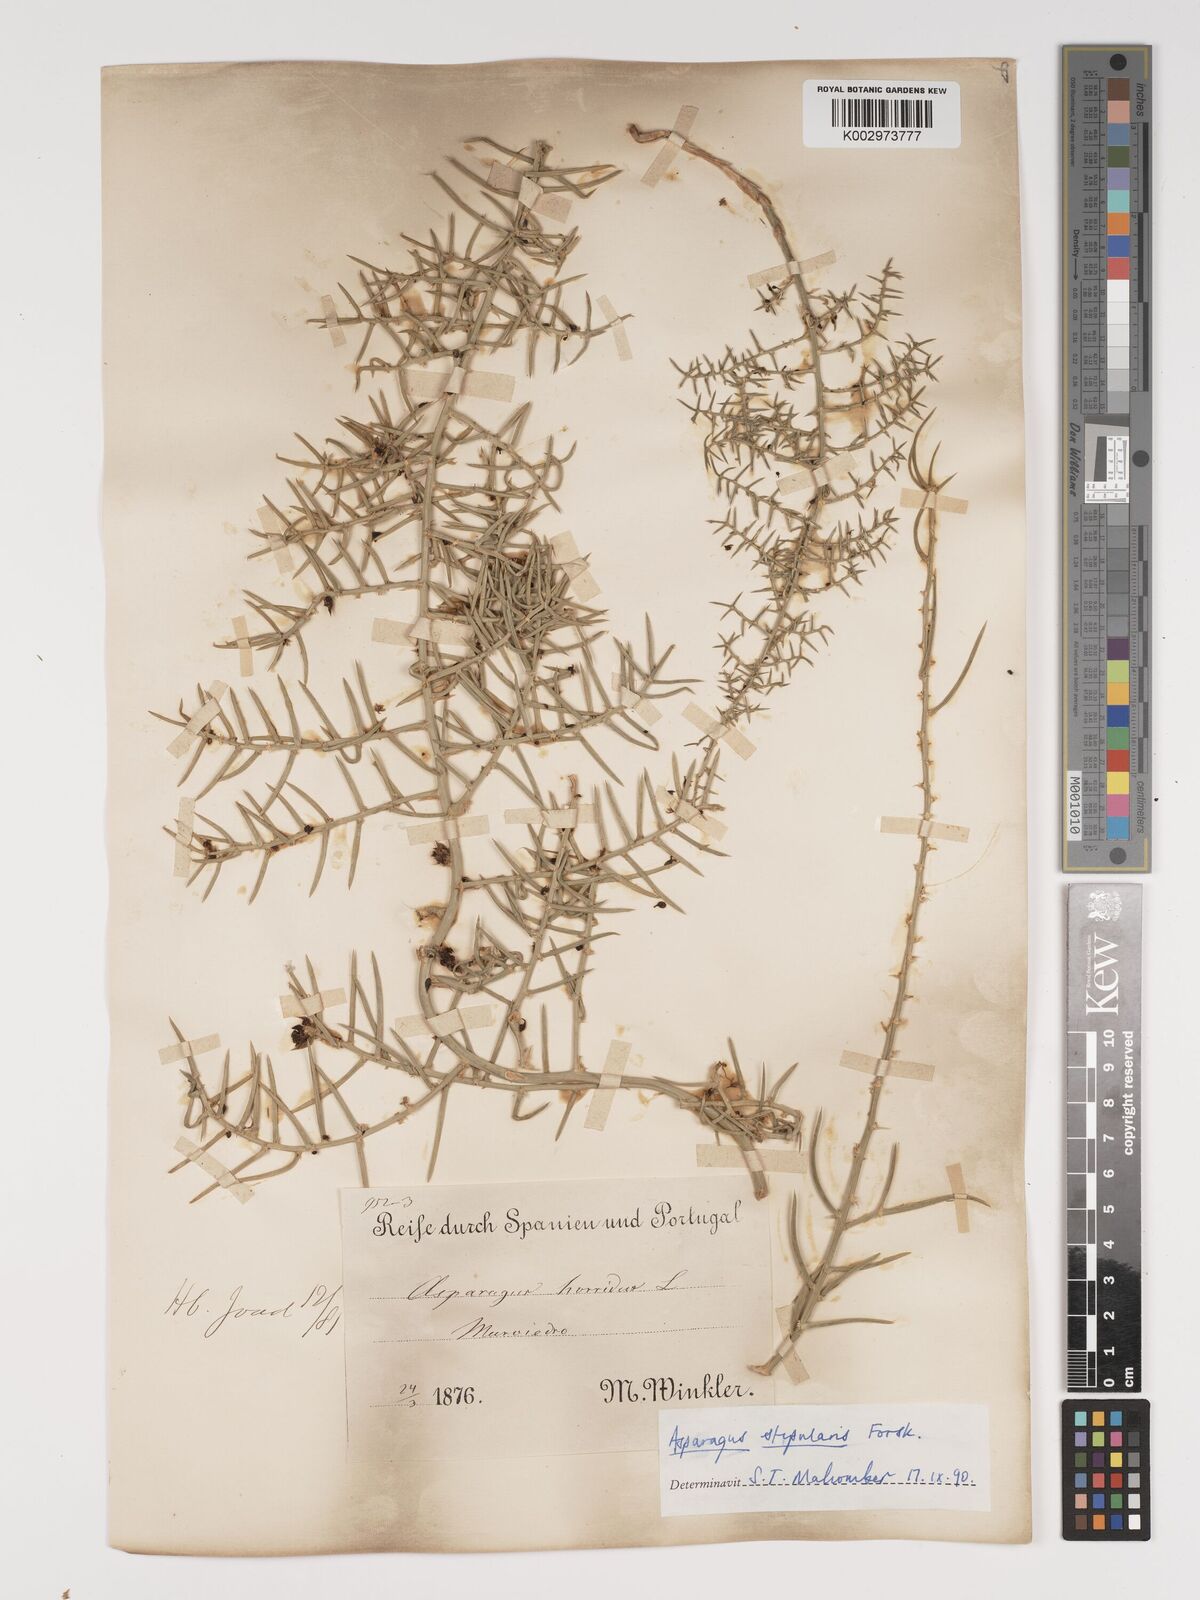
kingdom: Plantae
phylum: Tracheophyta
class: Liliopsida
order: Asparagales
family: Asparagaceae
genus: Asparagus
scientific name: Asparagus horridus
